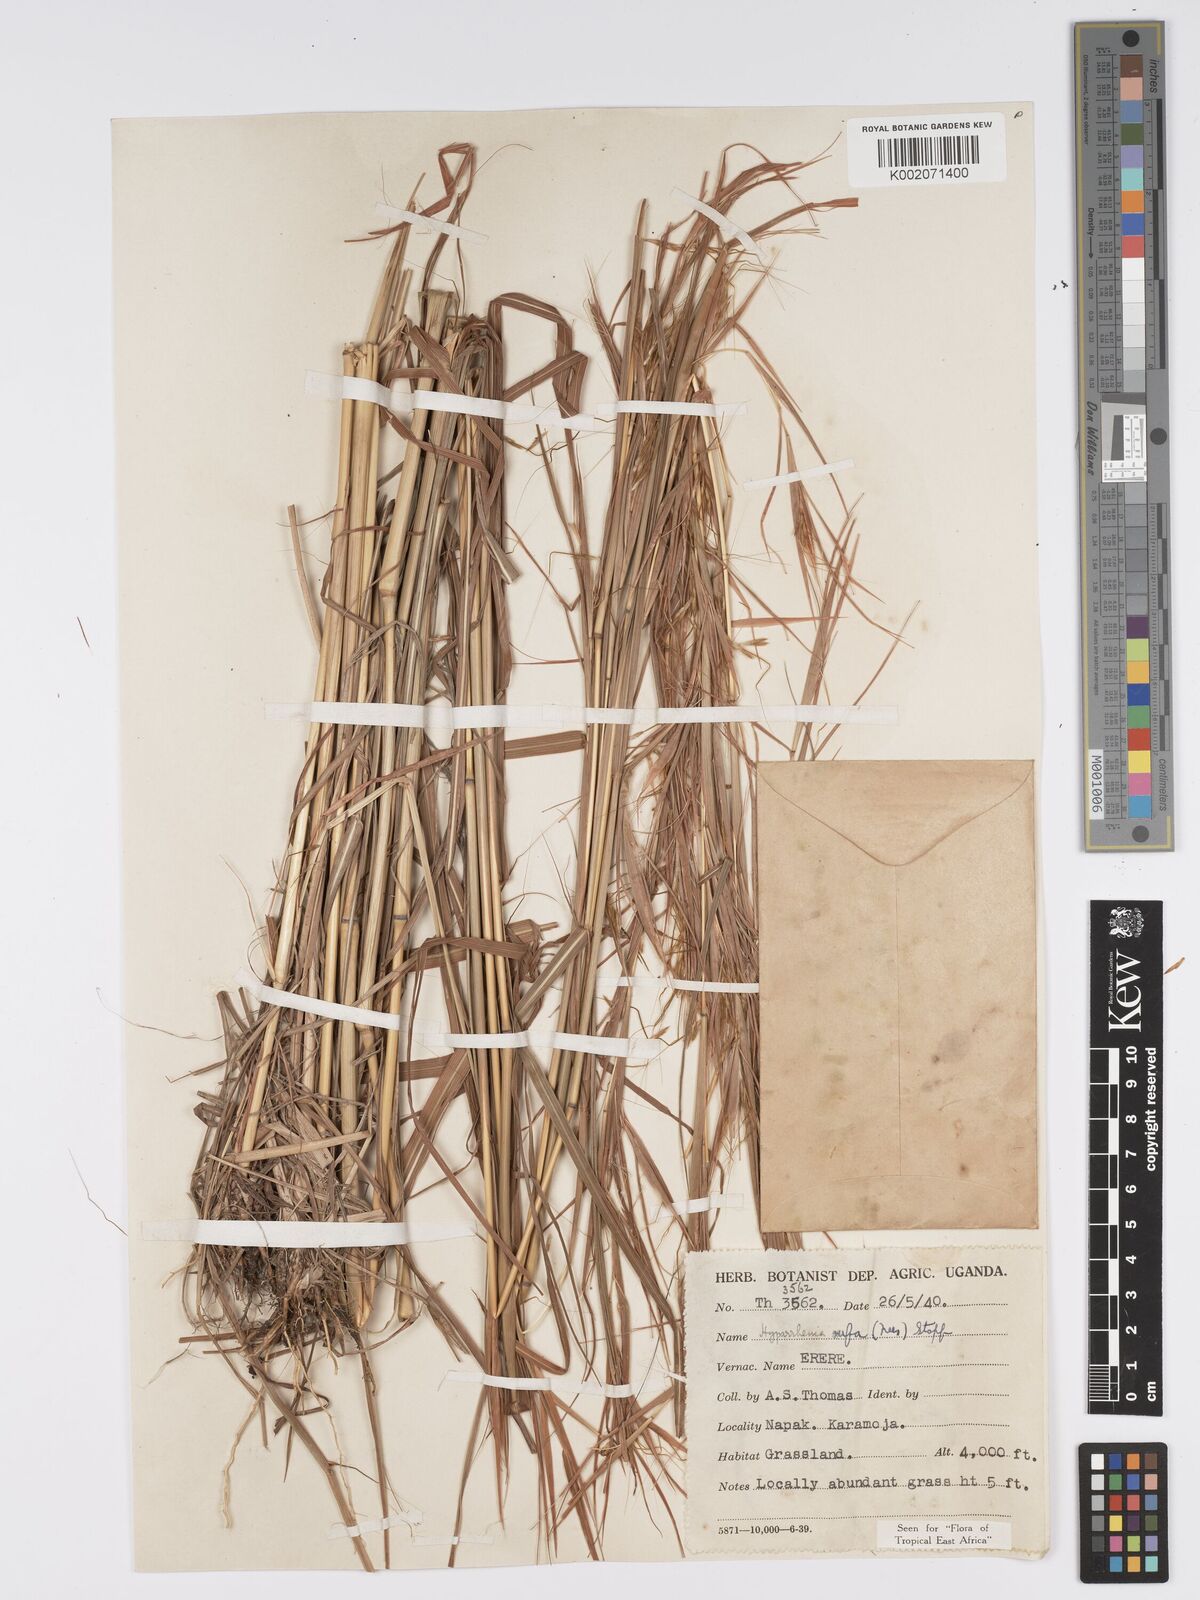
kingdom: Plantae
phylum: Tracheophyta
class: Liliopsida
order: Poales
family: Poaceae
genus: Hyparrhenia
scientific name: Hyparrhenia rufa
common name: Jaraguagrass
